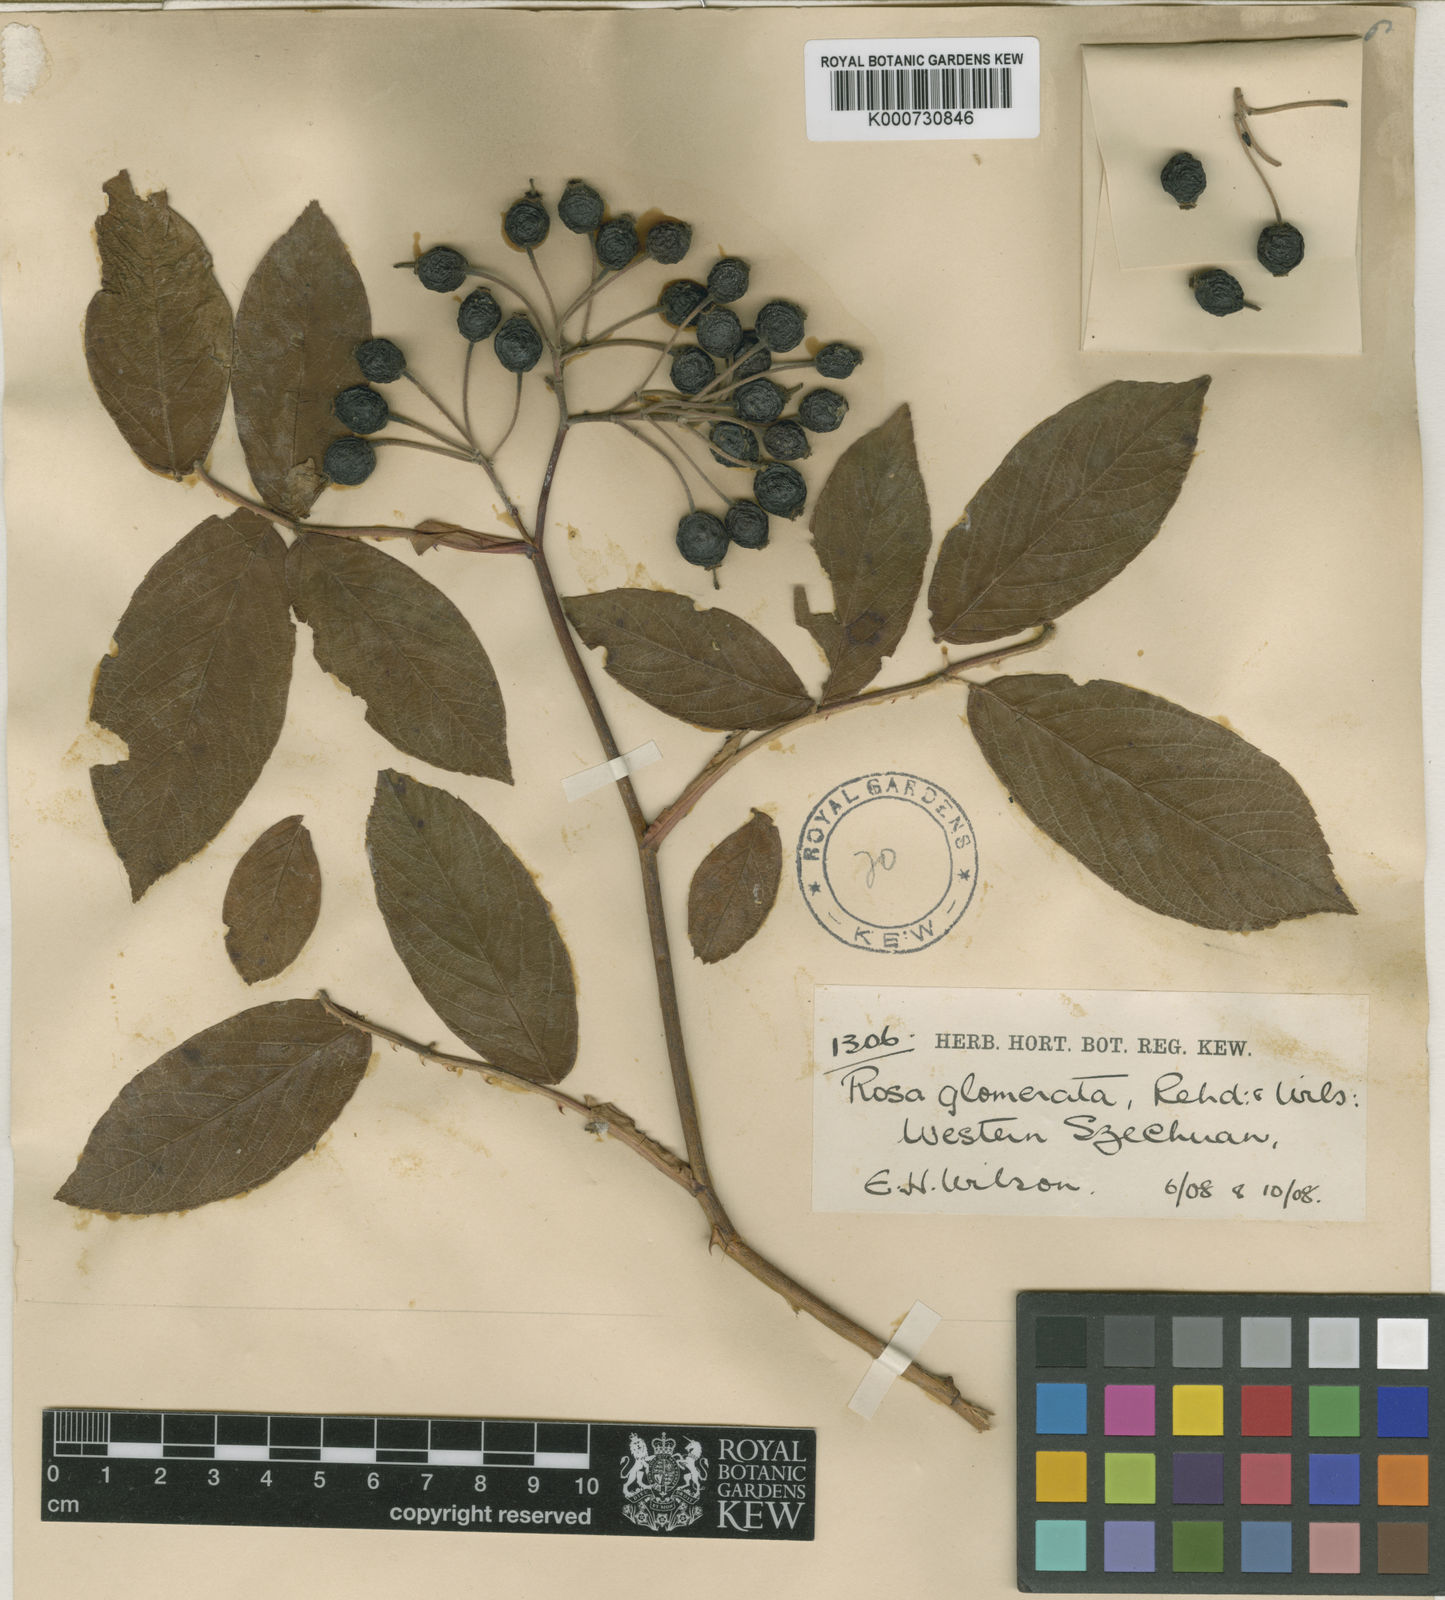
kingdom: Plantae
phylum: Tracheophyta
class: Magnoliopsida
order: Rosales
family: Rosaceae
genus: Rosa
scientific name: Rosa glomerata
